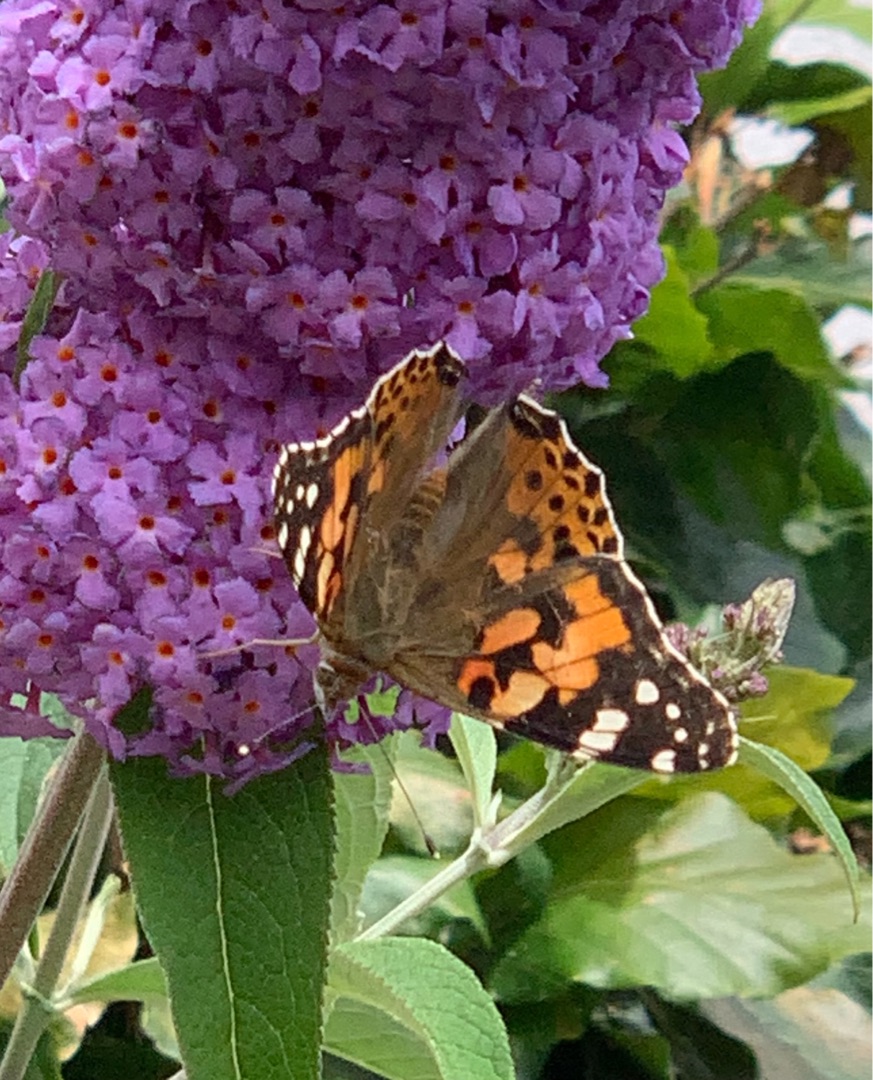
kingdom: Animalia
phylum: Arthropoda
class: Insecta
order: Lepidoptera
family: Nymphalidae
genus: Vanessa
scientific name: Vanessa cardui
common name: Tidselsommerfugl
